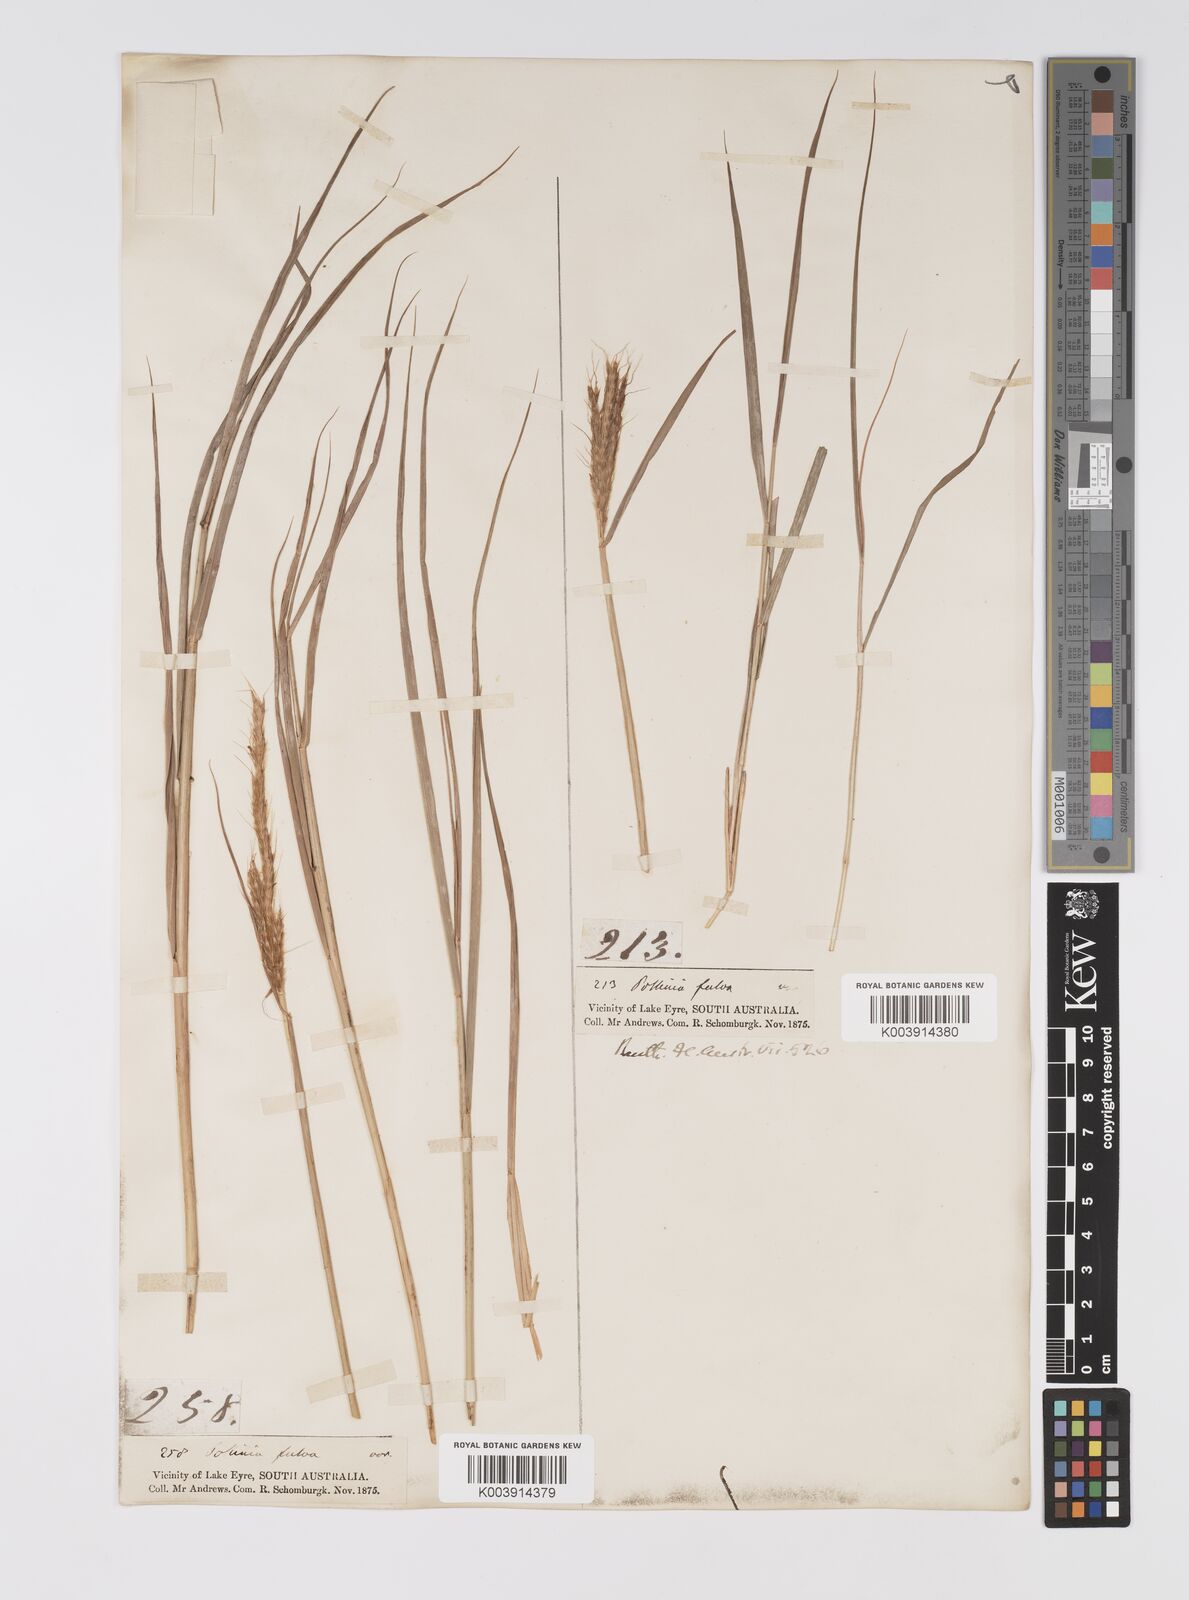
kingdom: Plantae
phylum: Tracheophyta
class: Liliopsida
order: Poales
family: Poaceae
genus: Eulalia
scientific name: Eulalia aurea
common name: Silky browntop
